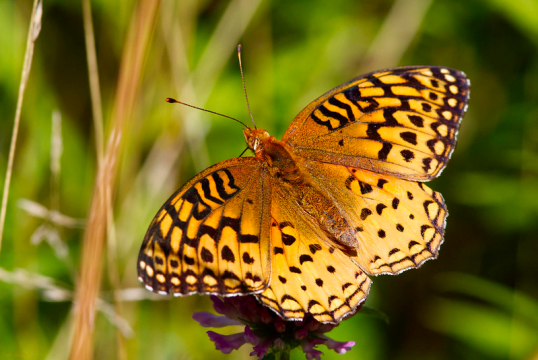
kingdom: Animalia
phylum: Arthropoda
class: Insecta
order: Lepidoptera
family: Nymphalidae
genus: Speyeria
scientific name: Speyeria aphrodite
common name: Aphrodite Fritillary
